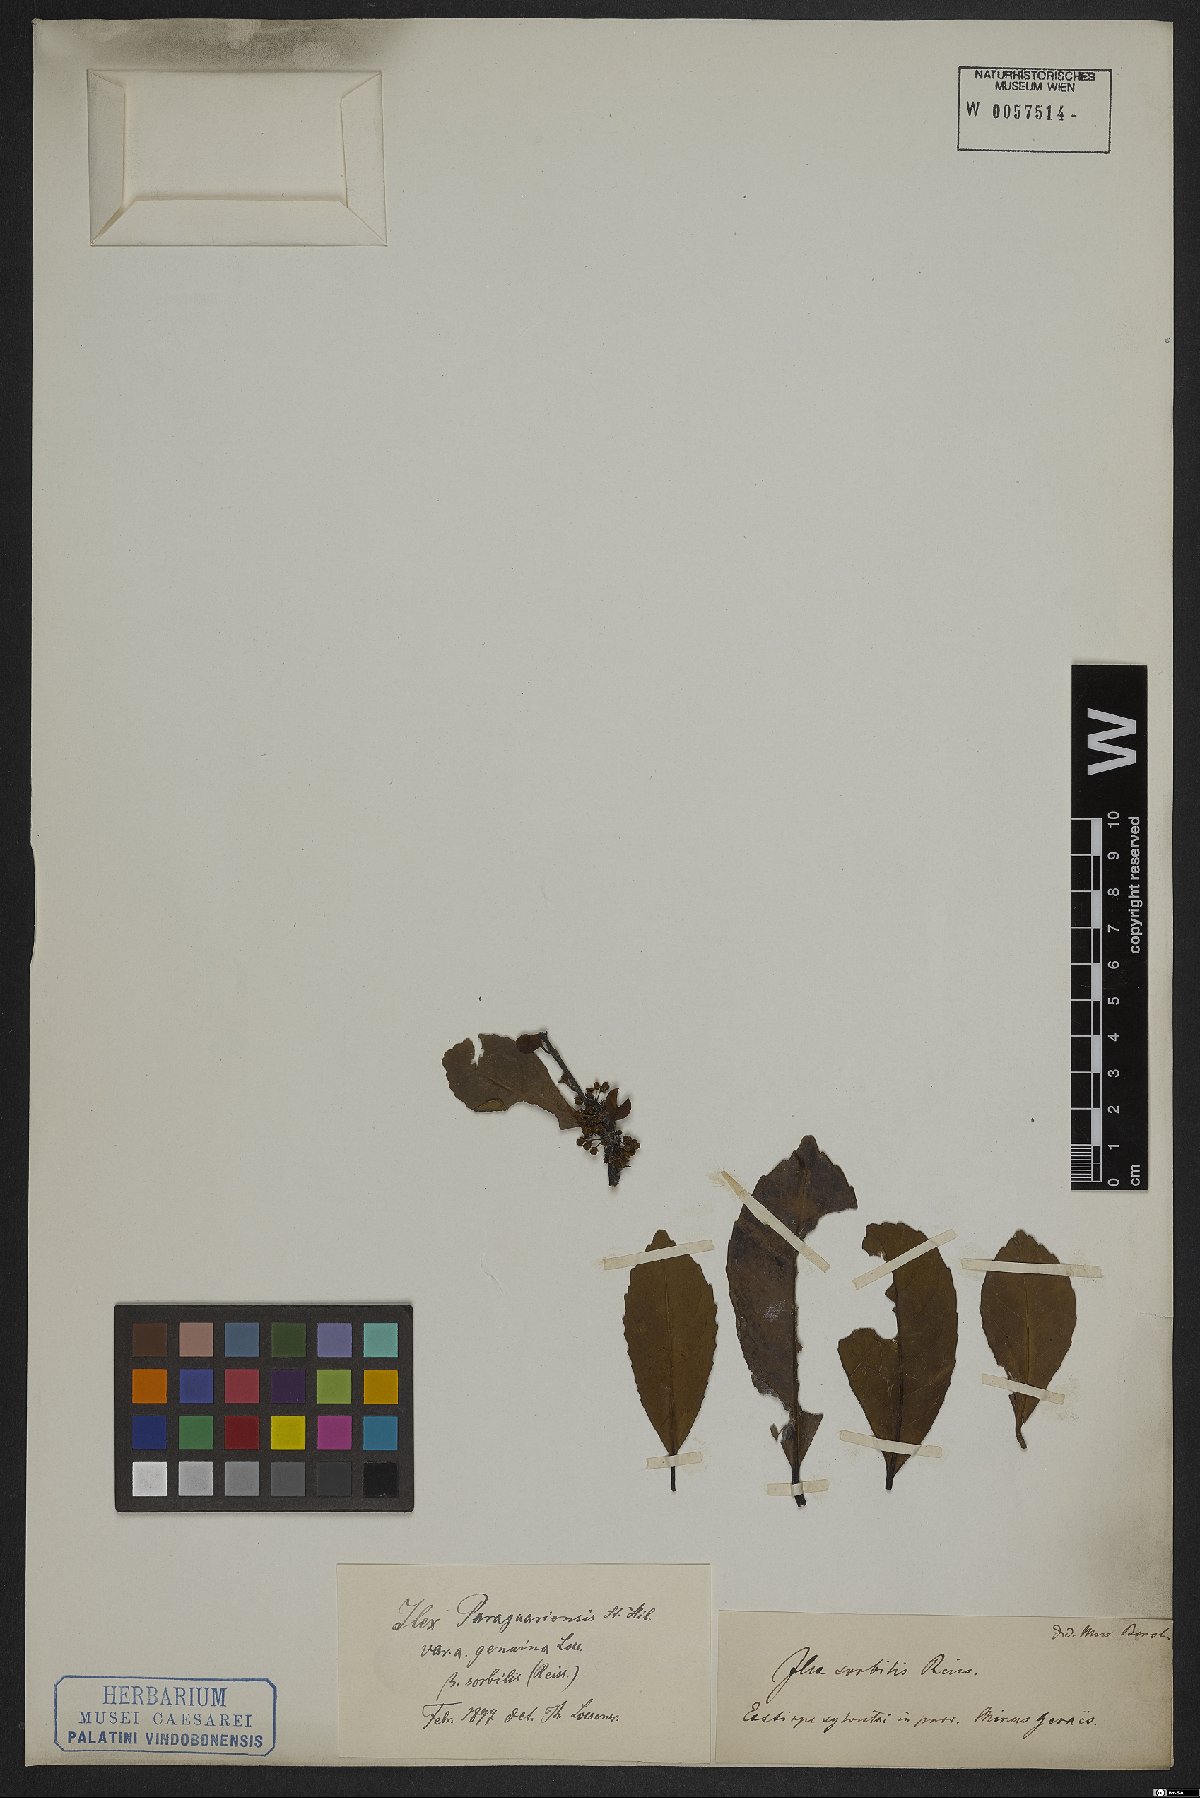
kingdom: Plantae
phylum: Tracheophyta
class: Magnoliopsida
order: Aquifoliales
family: Aquifoliaceae
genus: Ilex
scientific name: Ilex paraguariensis
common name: Paraguay tea
